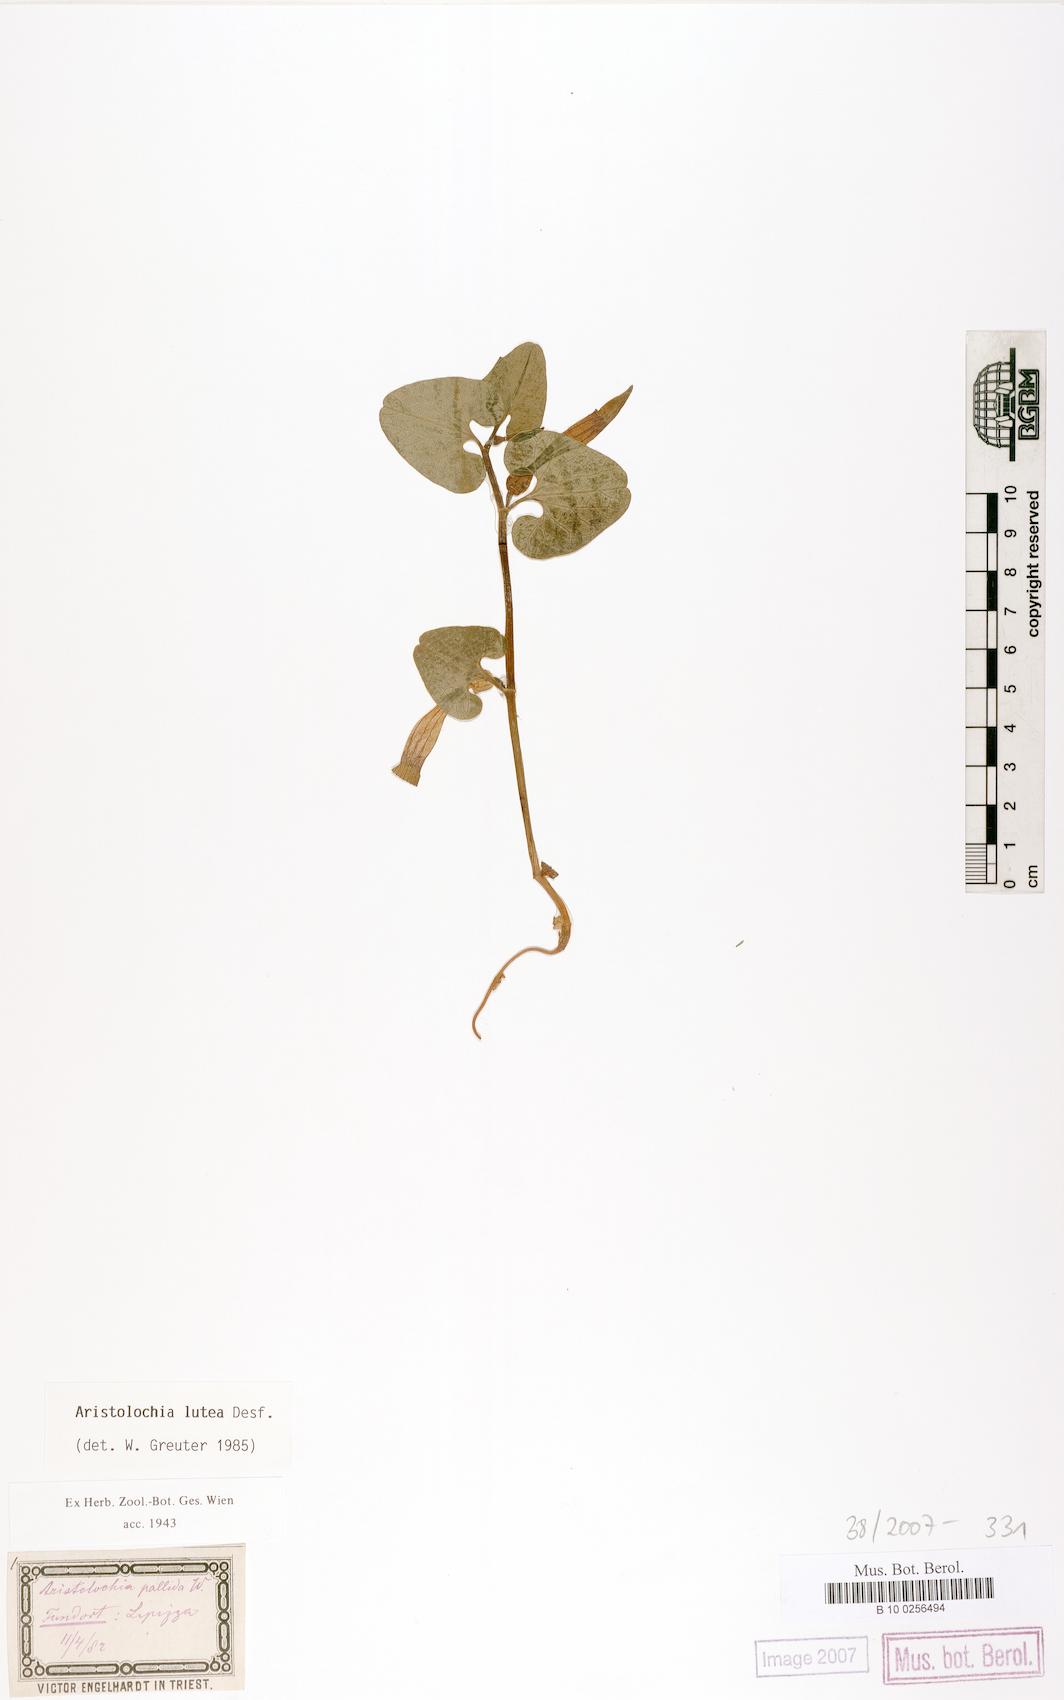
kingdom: Plantae
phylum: Tracheophyta
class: Magnoliopsida
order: Piperales
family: Aristolochiaceae
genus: Aristolochia
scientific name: Aristolochia lutea
